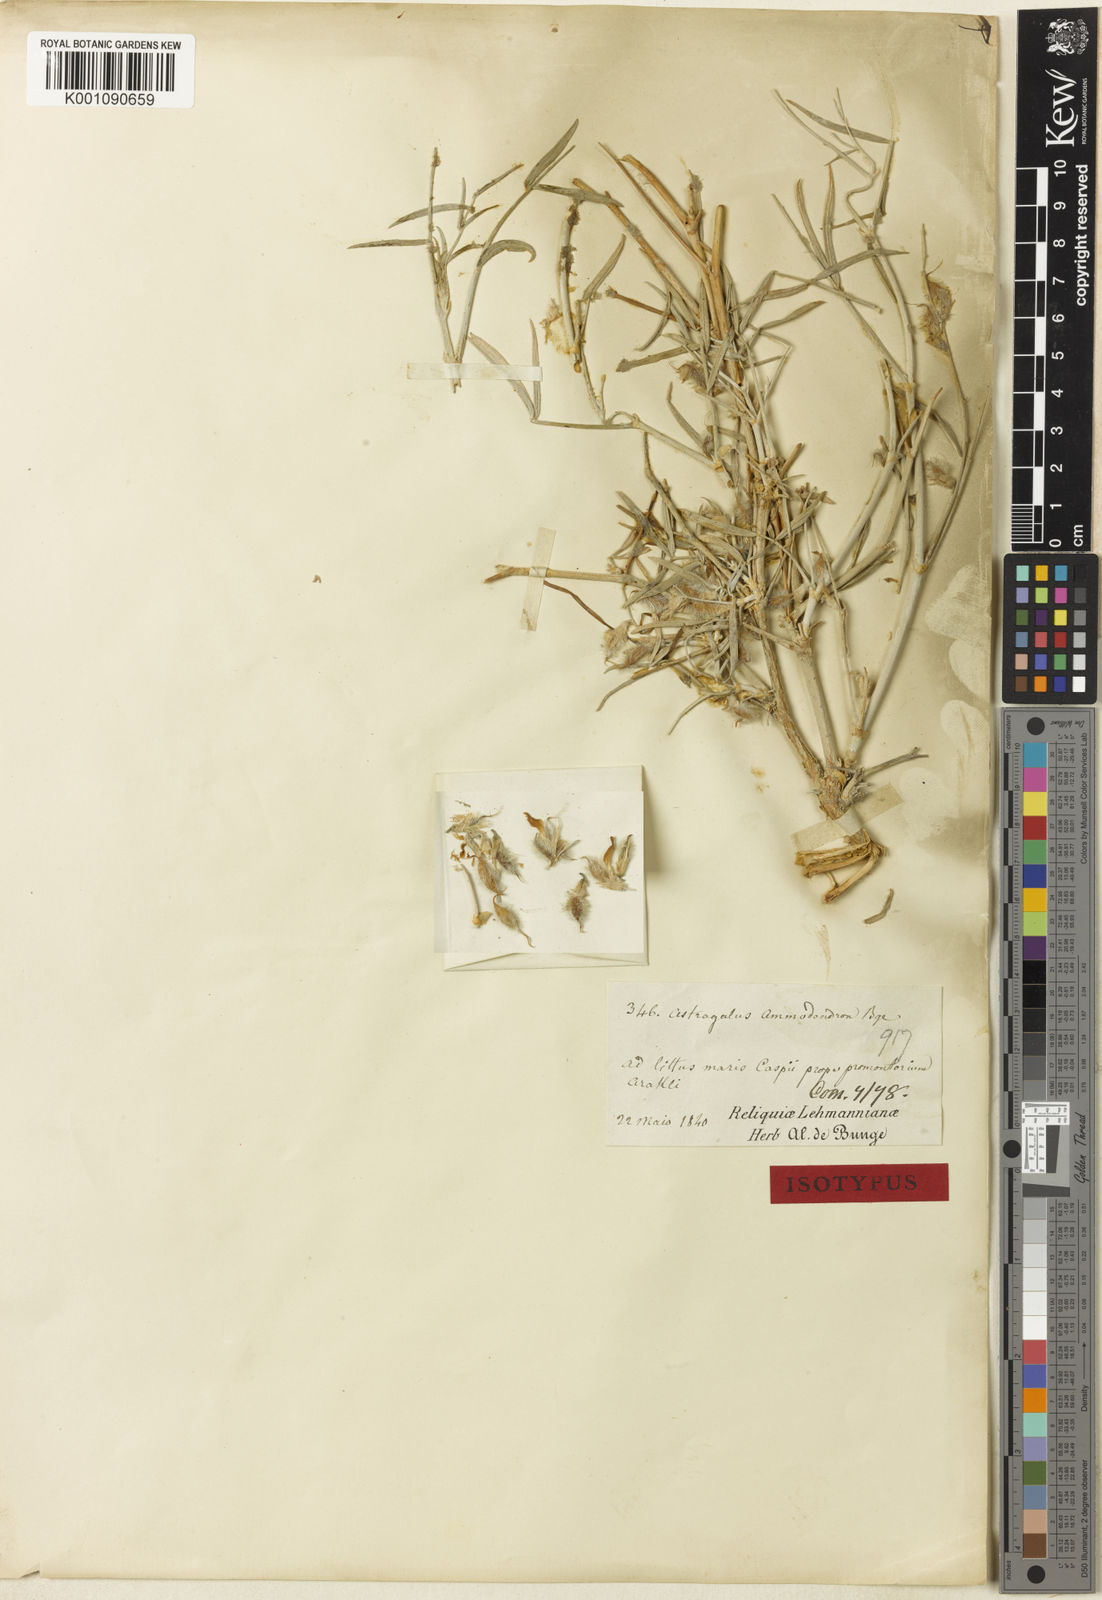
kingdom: Plantae
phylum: Tracheophyta
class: Magnoliopsida
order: Fabales
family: Fabaceae
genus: Astragalus
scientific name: Astragalus
